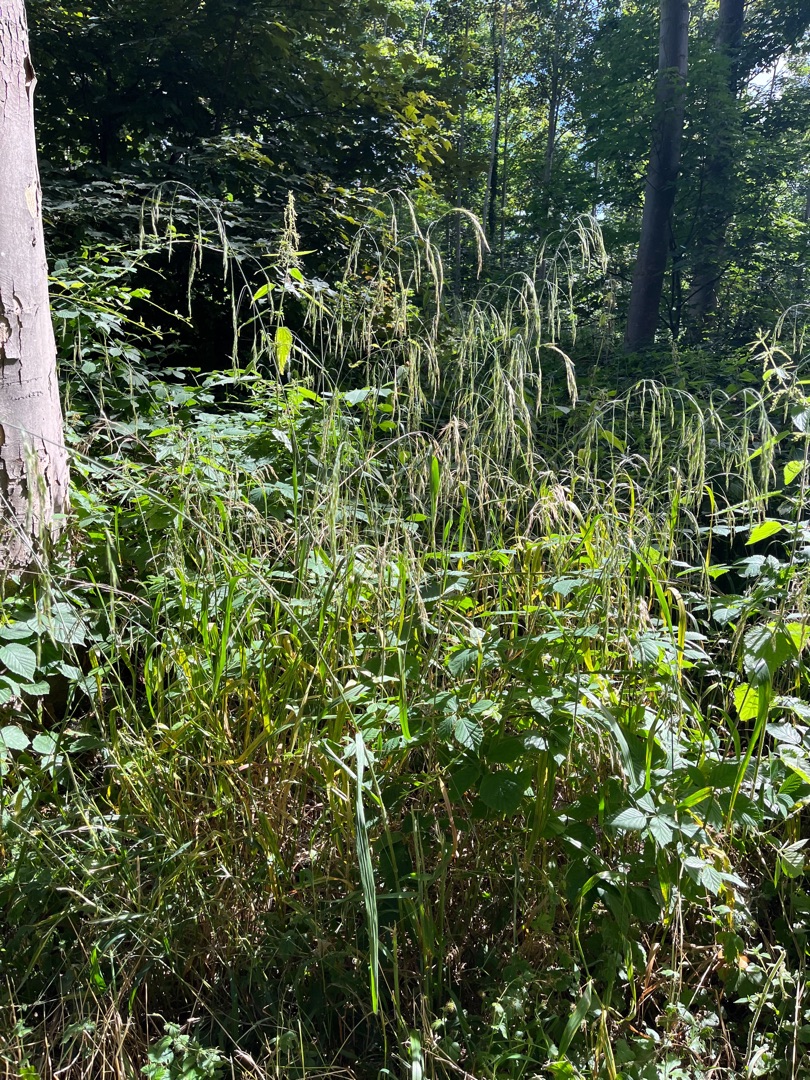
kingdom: Plantae
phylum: Tracheophyta
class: Liliopsida
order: Poales
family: Poaceae
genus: Bromus
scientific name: Bromus ramosus
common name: Sildig skov-hejre
